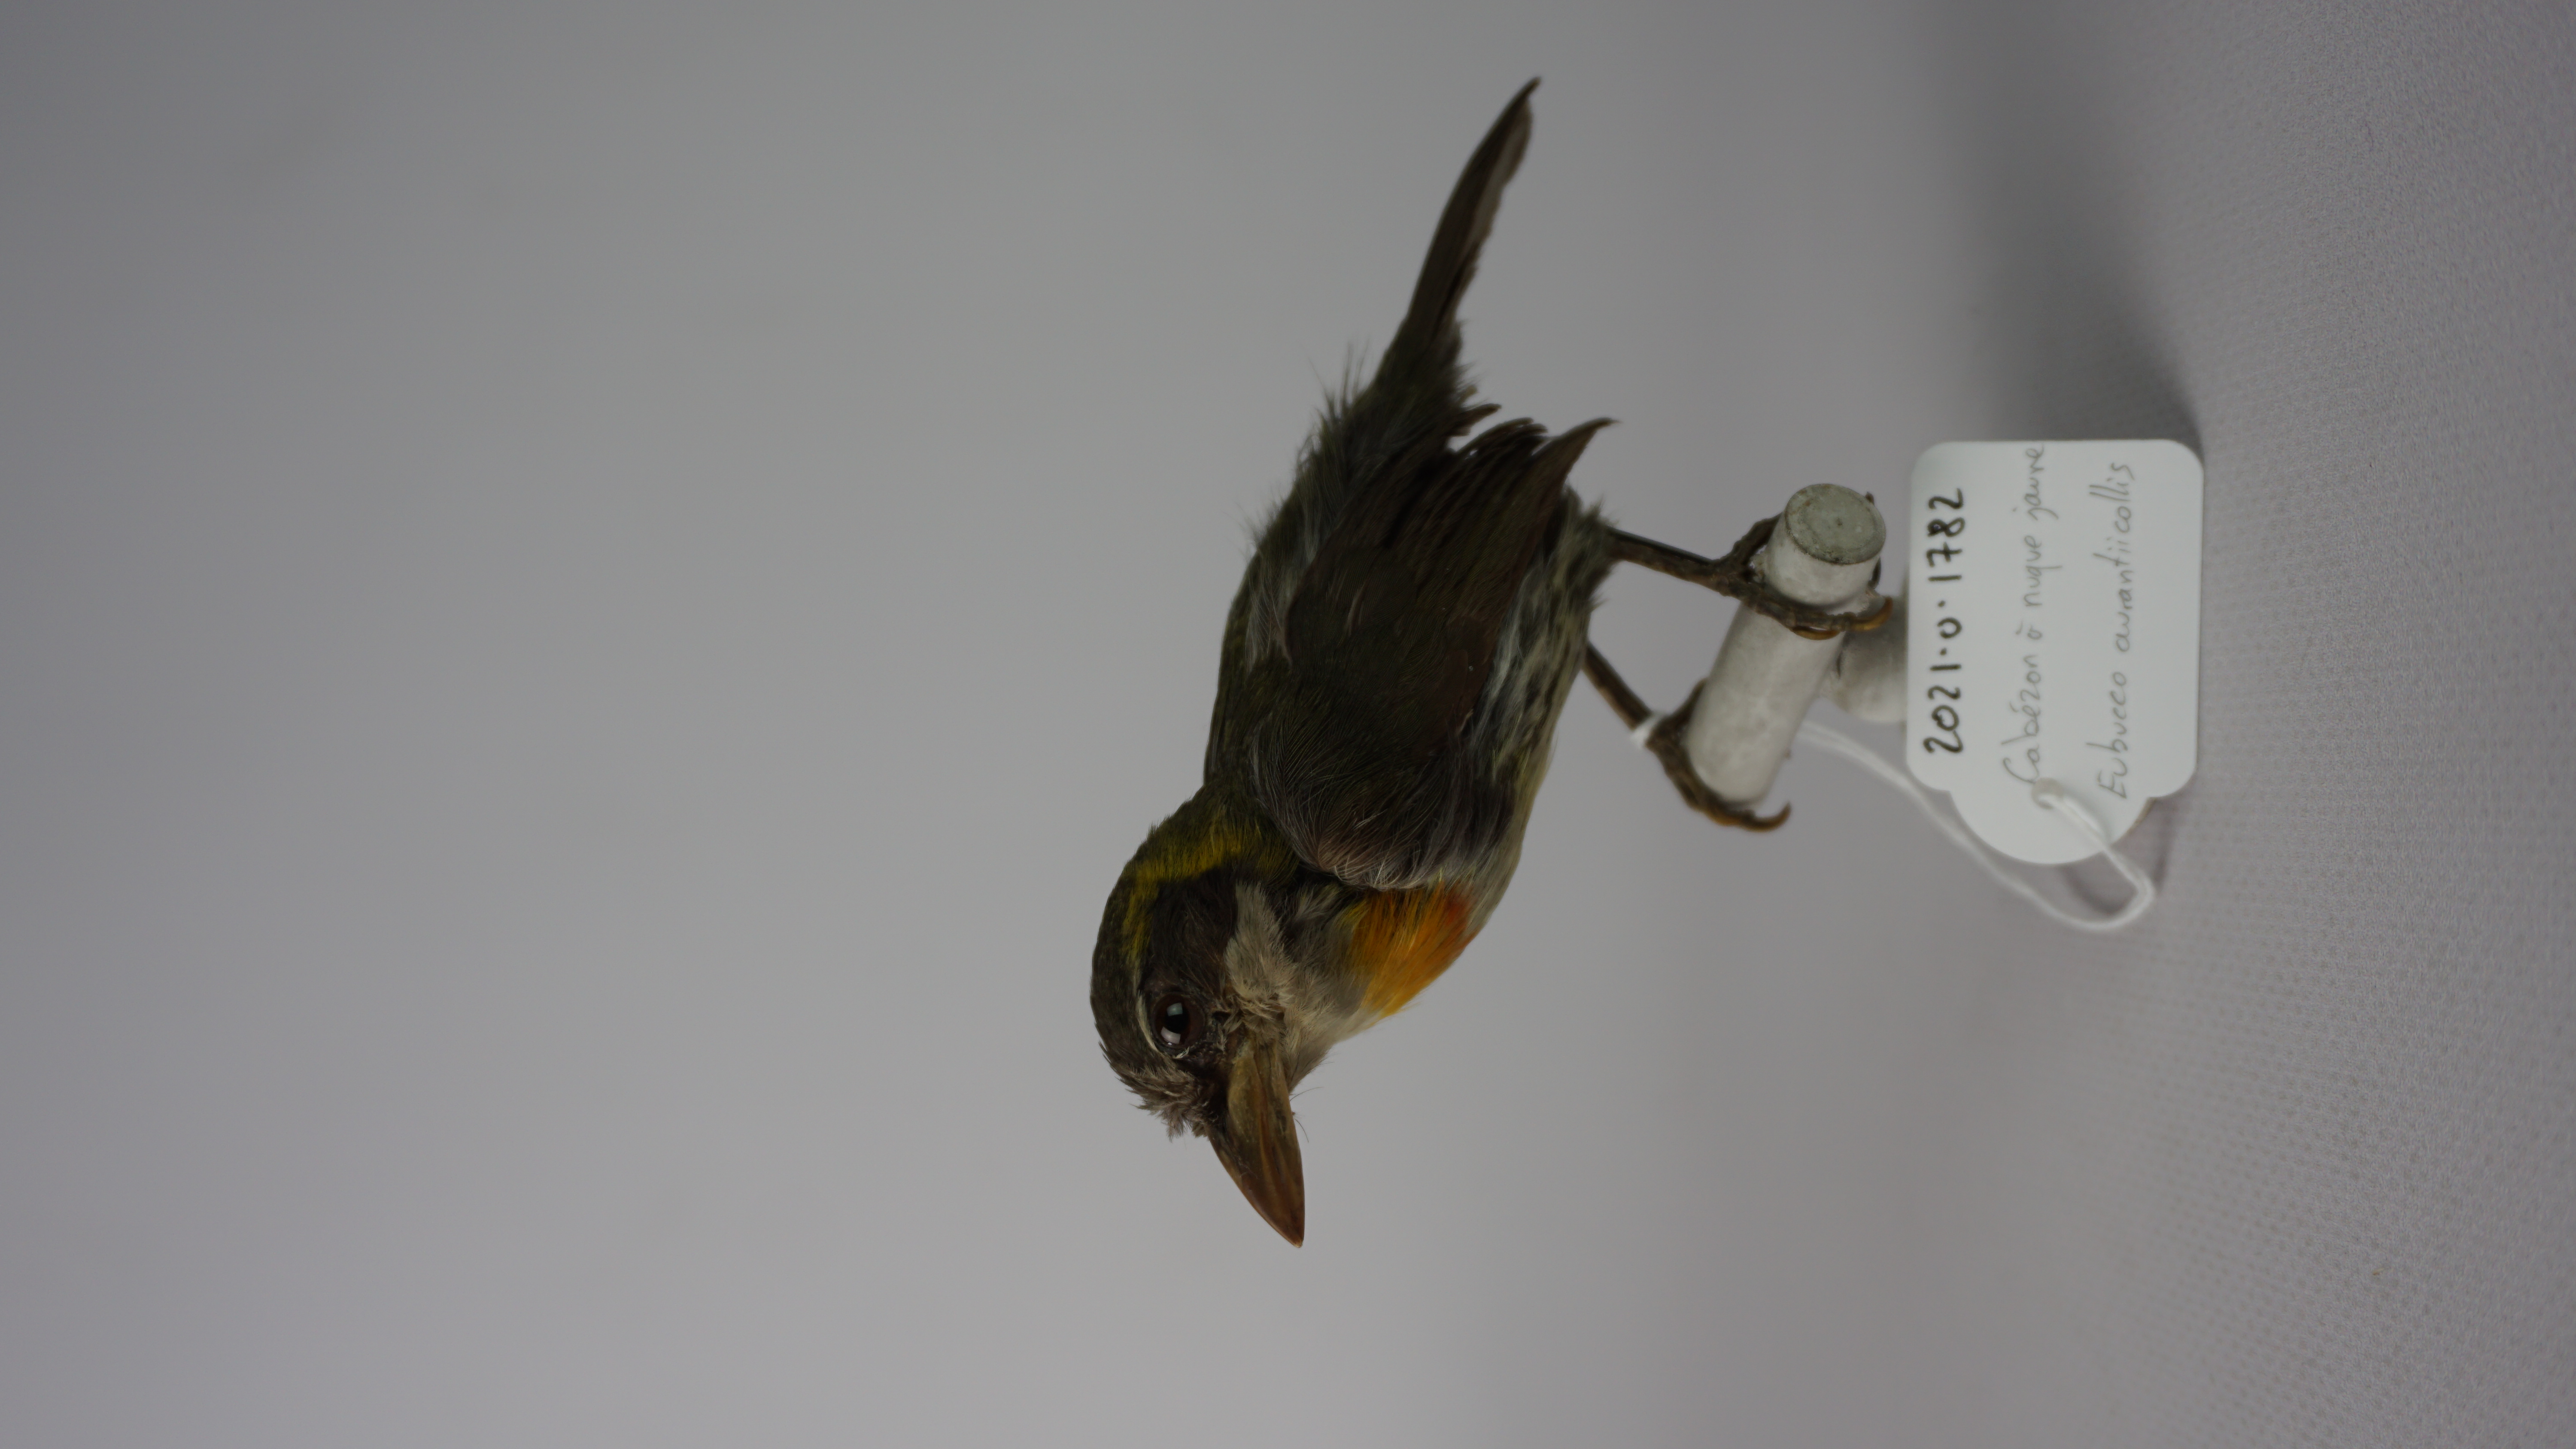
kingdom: Animalia
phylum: Chordata
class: Aves
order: Piciformes
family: Capitonidae
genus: Eubucco
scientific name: Eubucco aurantiicollis
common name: Flame-throated barbet
